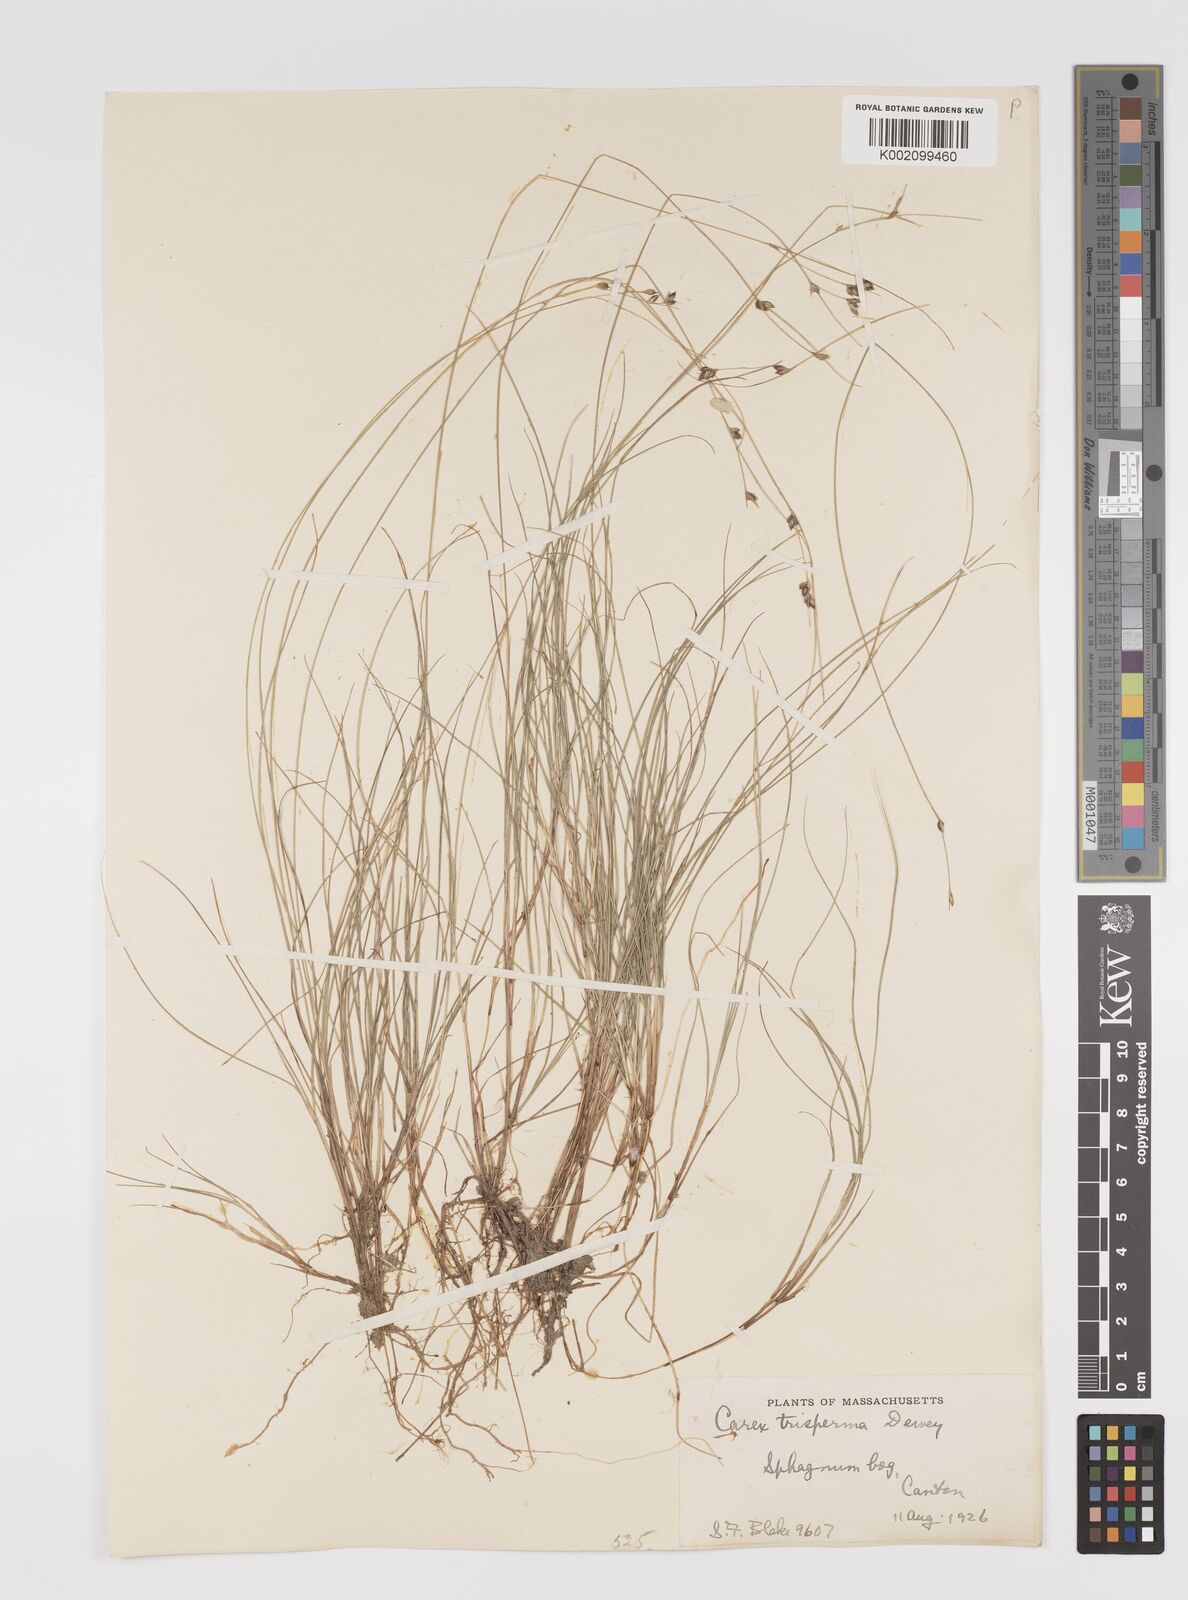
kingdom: Plantae
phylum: Tracheophyta
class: Liliopsida
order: Poales
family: Cyperaceae
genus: Carex
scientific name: Carex trisperma
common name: Three-seeded sedge
